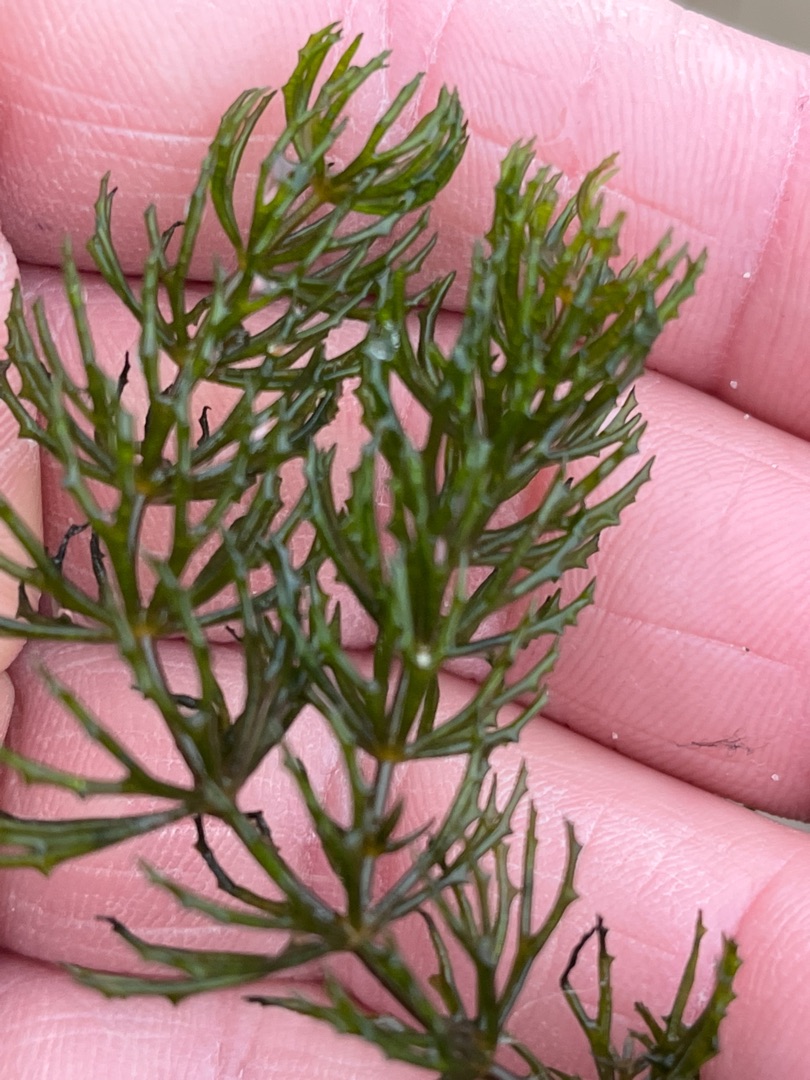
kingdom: Plantae
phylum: Tracheophyta
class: Magnoliopsida
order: Ceratophyllales
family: Ceratophyllaceae
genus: Ceratophyllum
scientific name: Ceratophyllum demersum
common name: Tornfrøet hornblad
